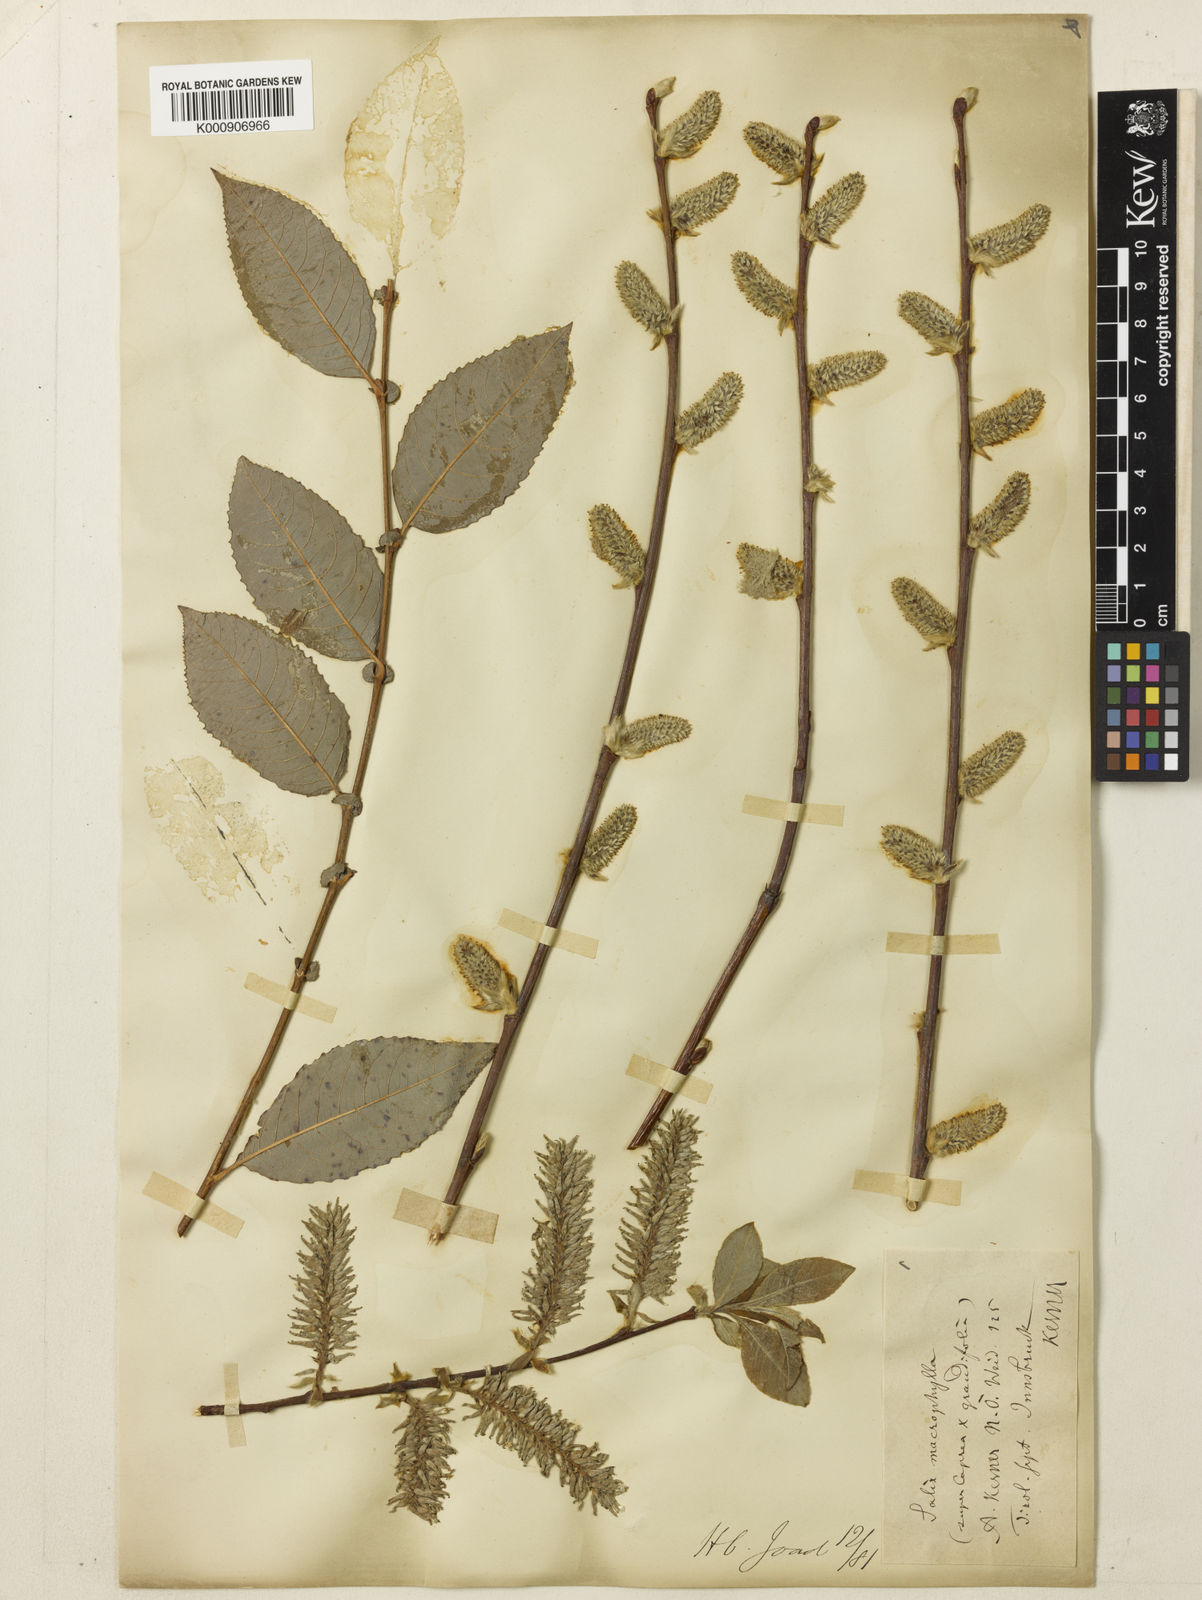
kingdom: Plantae
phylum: Tracheophyta
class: Magnoliopsida
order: Malpighiales
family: Salicaceae
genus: Salix
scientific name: Salix appendiculata
